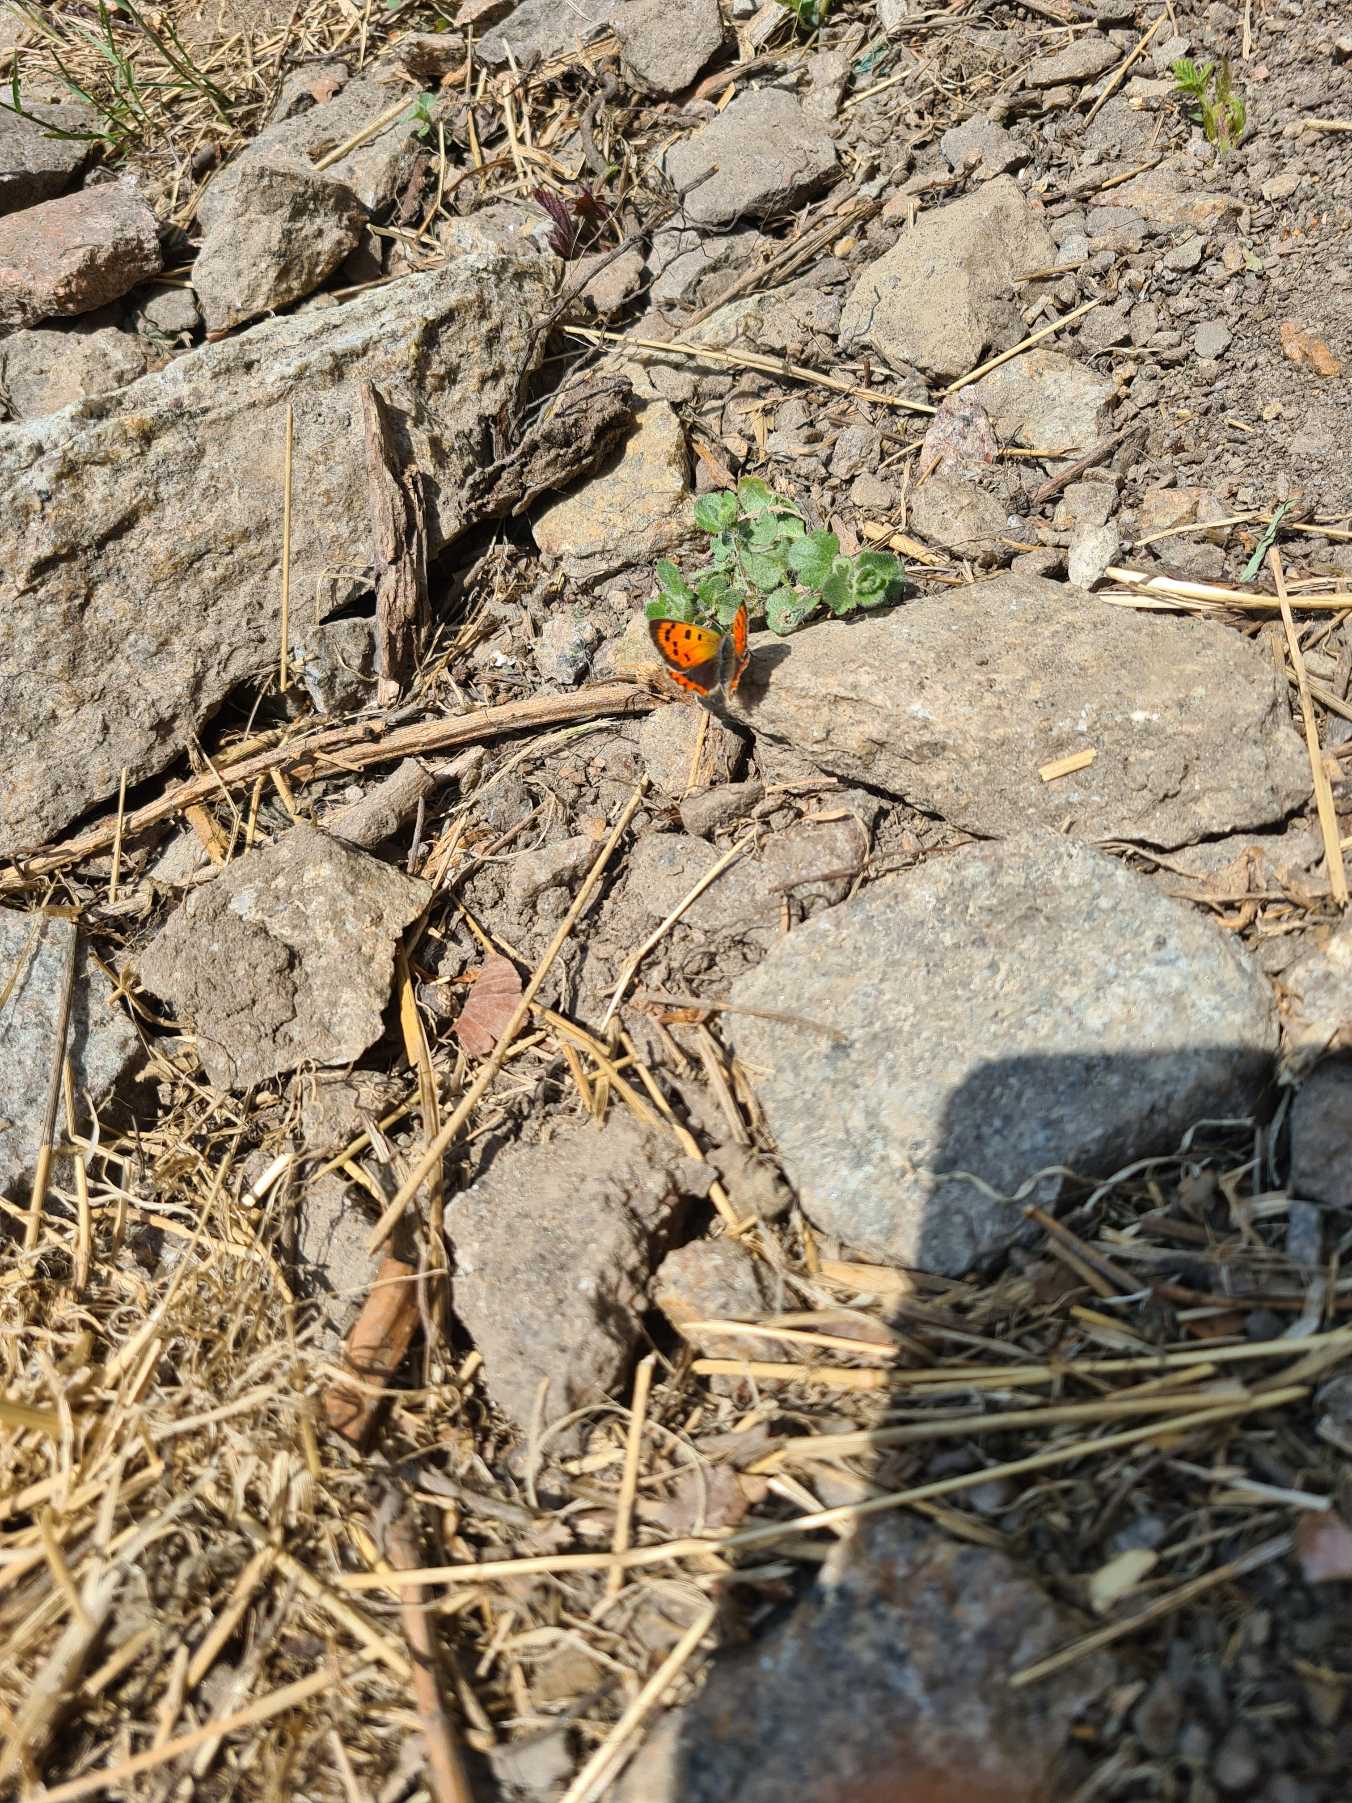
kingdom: Animalia
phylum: Arthropoda
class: Insecta
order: Lepidoptera
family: Lycaenidae
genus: Lycaena
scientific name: Lycaena phlaeas
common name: Lille ildfugl
